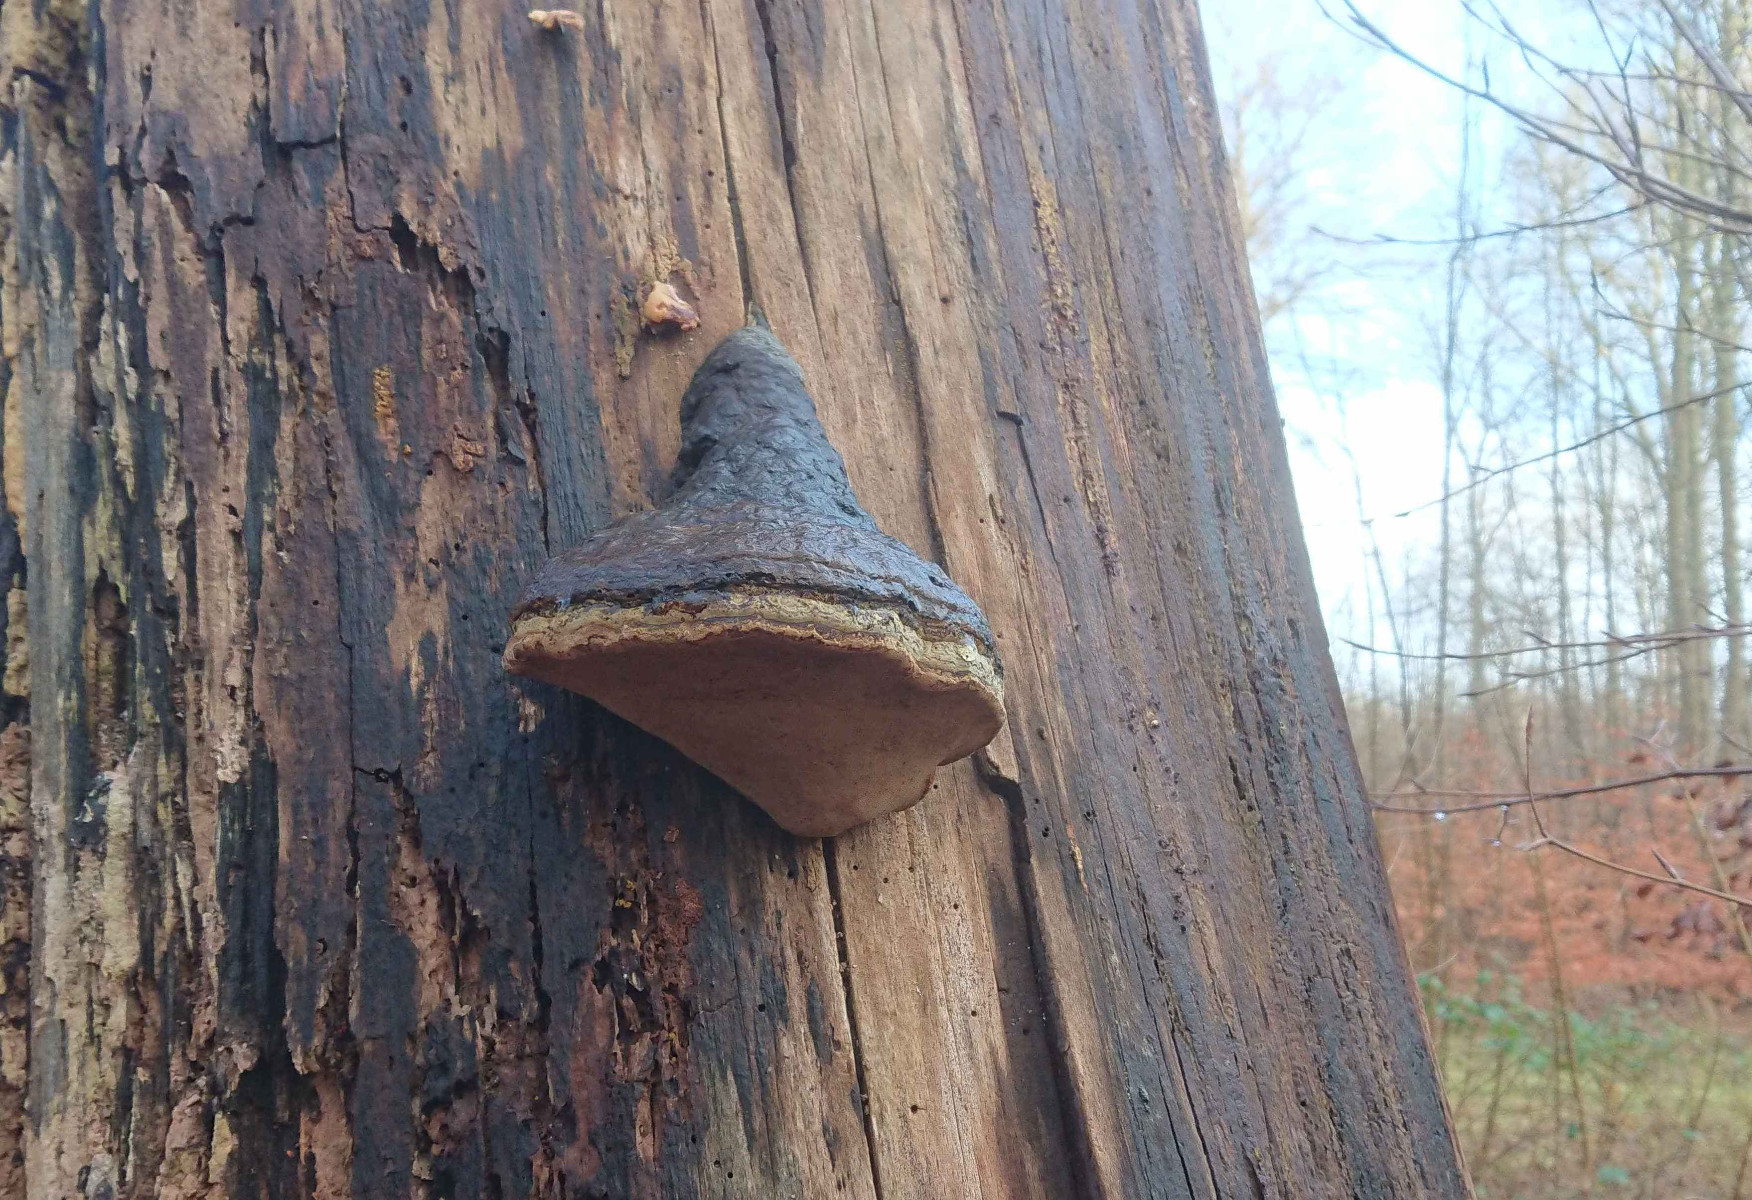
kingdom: Fungi
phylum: Basidiomycota
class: Agaricomycetes
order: Polyporales
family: Polyporaceae
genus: Fomes
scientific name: Fomes fomentarius
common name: tøndersvamp
